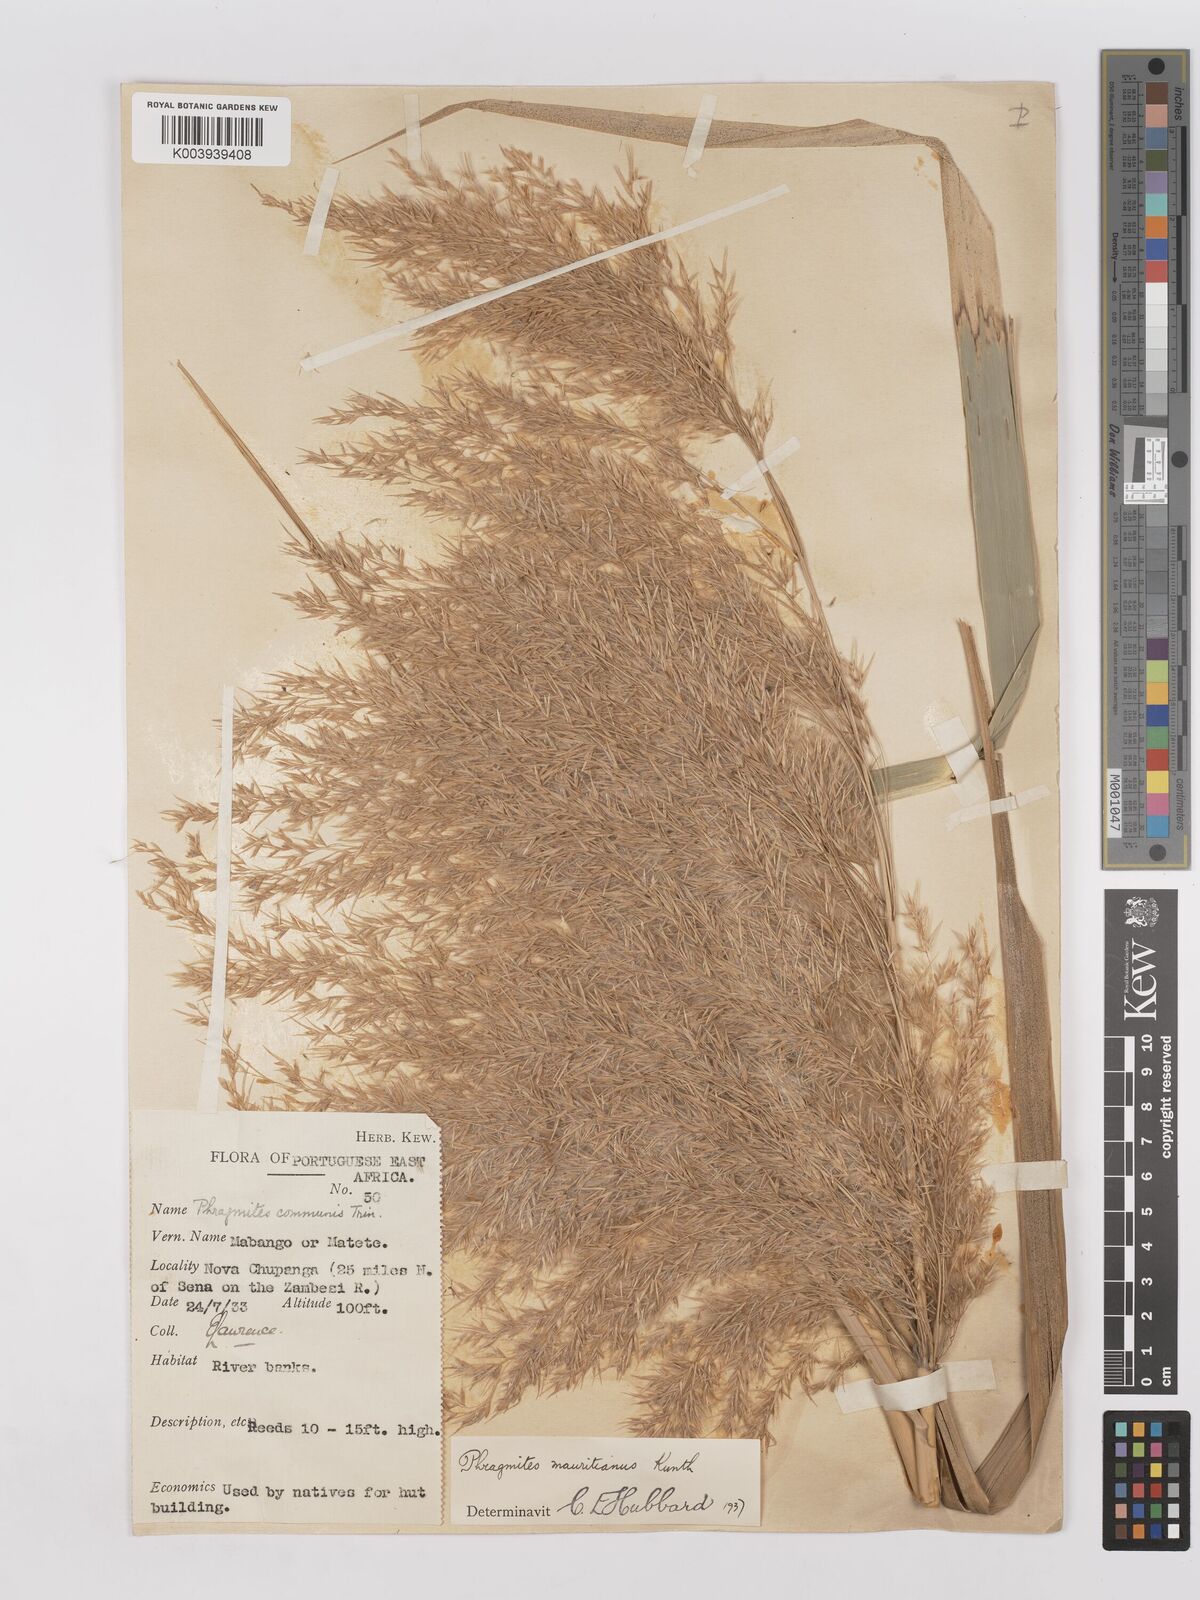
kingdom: Plantae
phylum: Tracheophyta
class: Liliopsida
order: Poales
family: Poaceae
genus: Phragmites
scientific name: Phragmites mauritianus
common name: Reed grass
